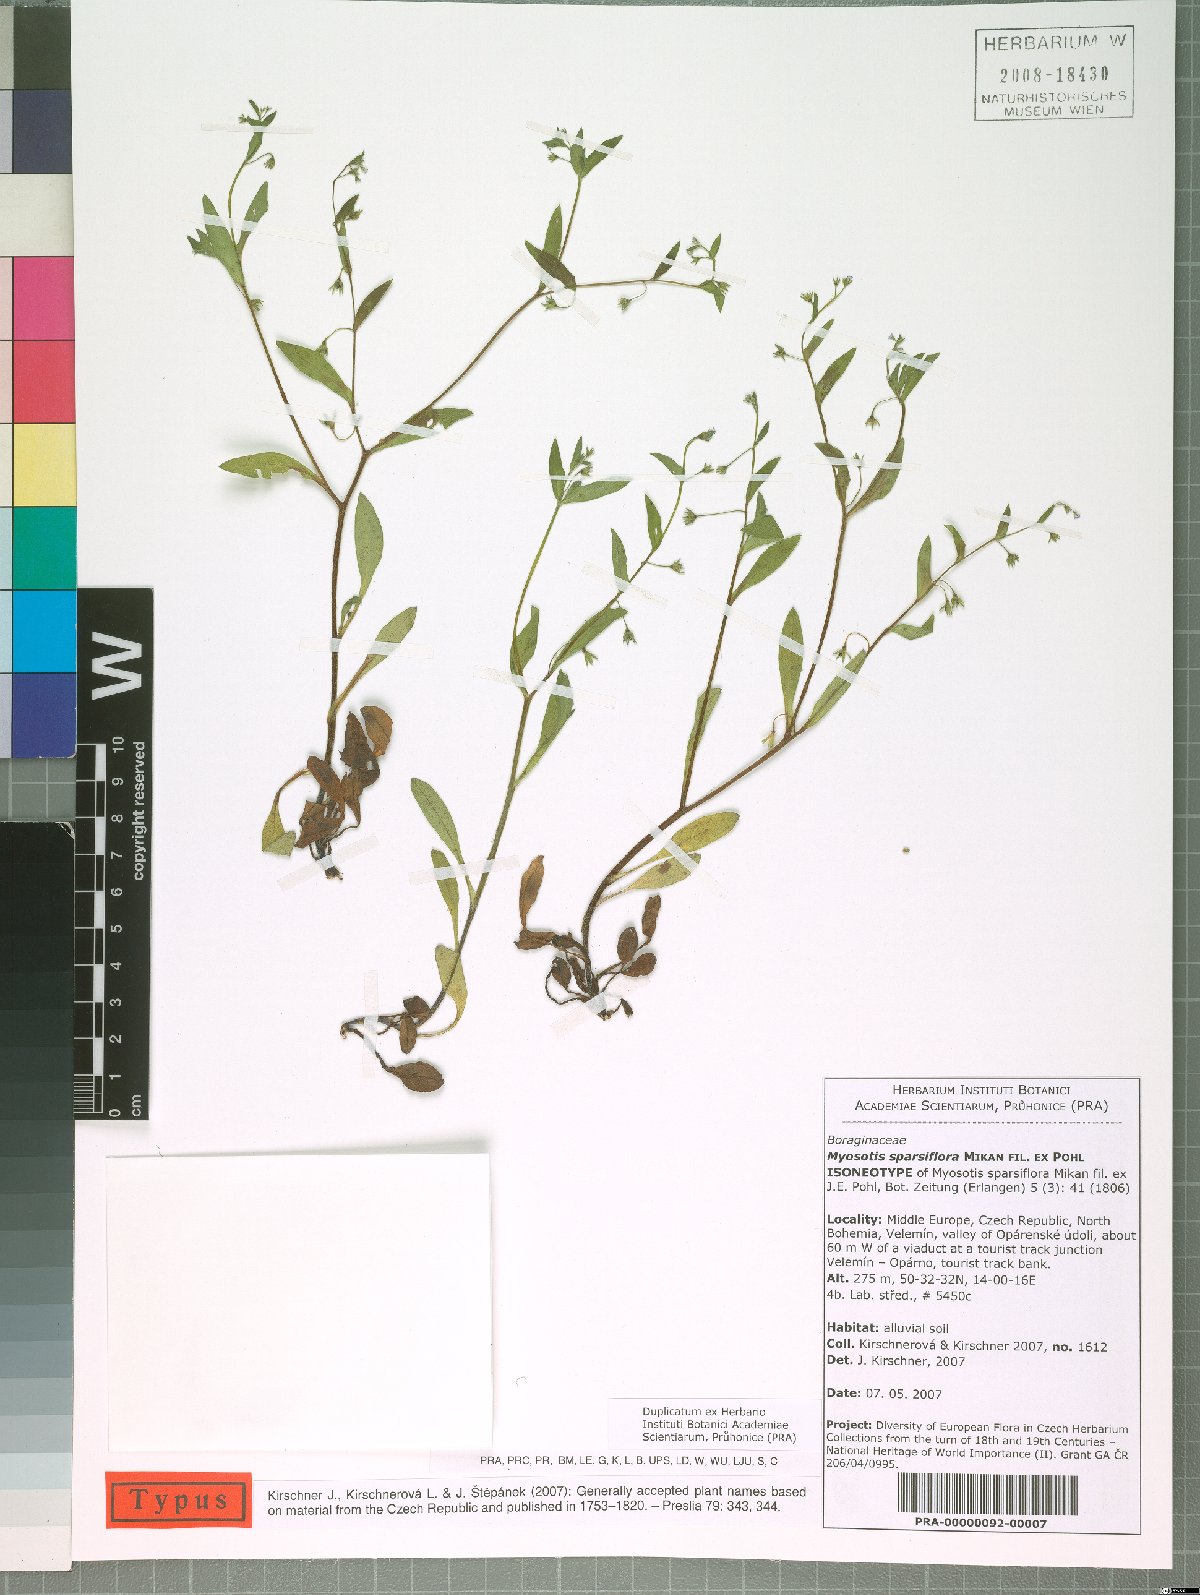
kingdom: Plantae
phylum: Tracheophyta
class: Magnoliopsida
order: Boraginales
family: Boraginaceae
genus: Myosotis
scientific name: Myosotis sparsiflora
